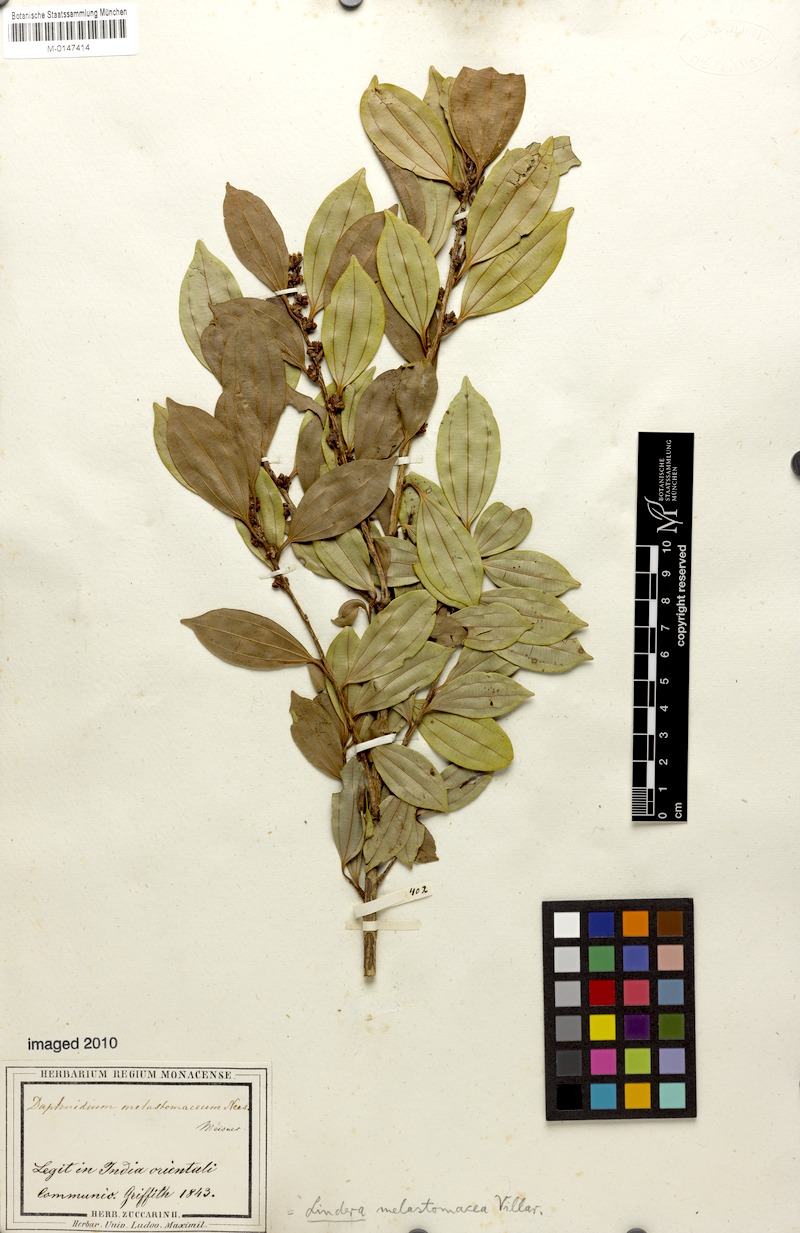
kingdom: Plantae
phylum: Tracheophyta
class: Magnoliopsida
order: Laurales
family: Lauraceae
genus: Lindera
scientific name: Lindera melastomacea
